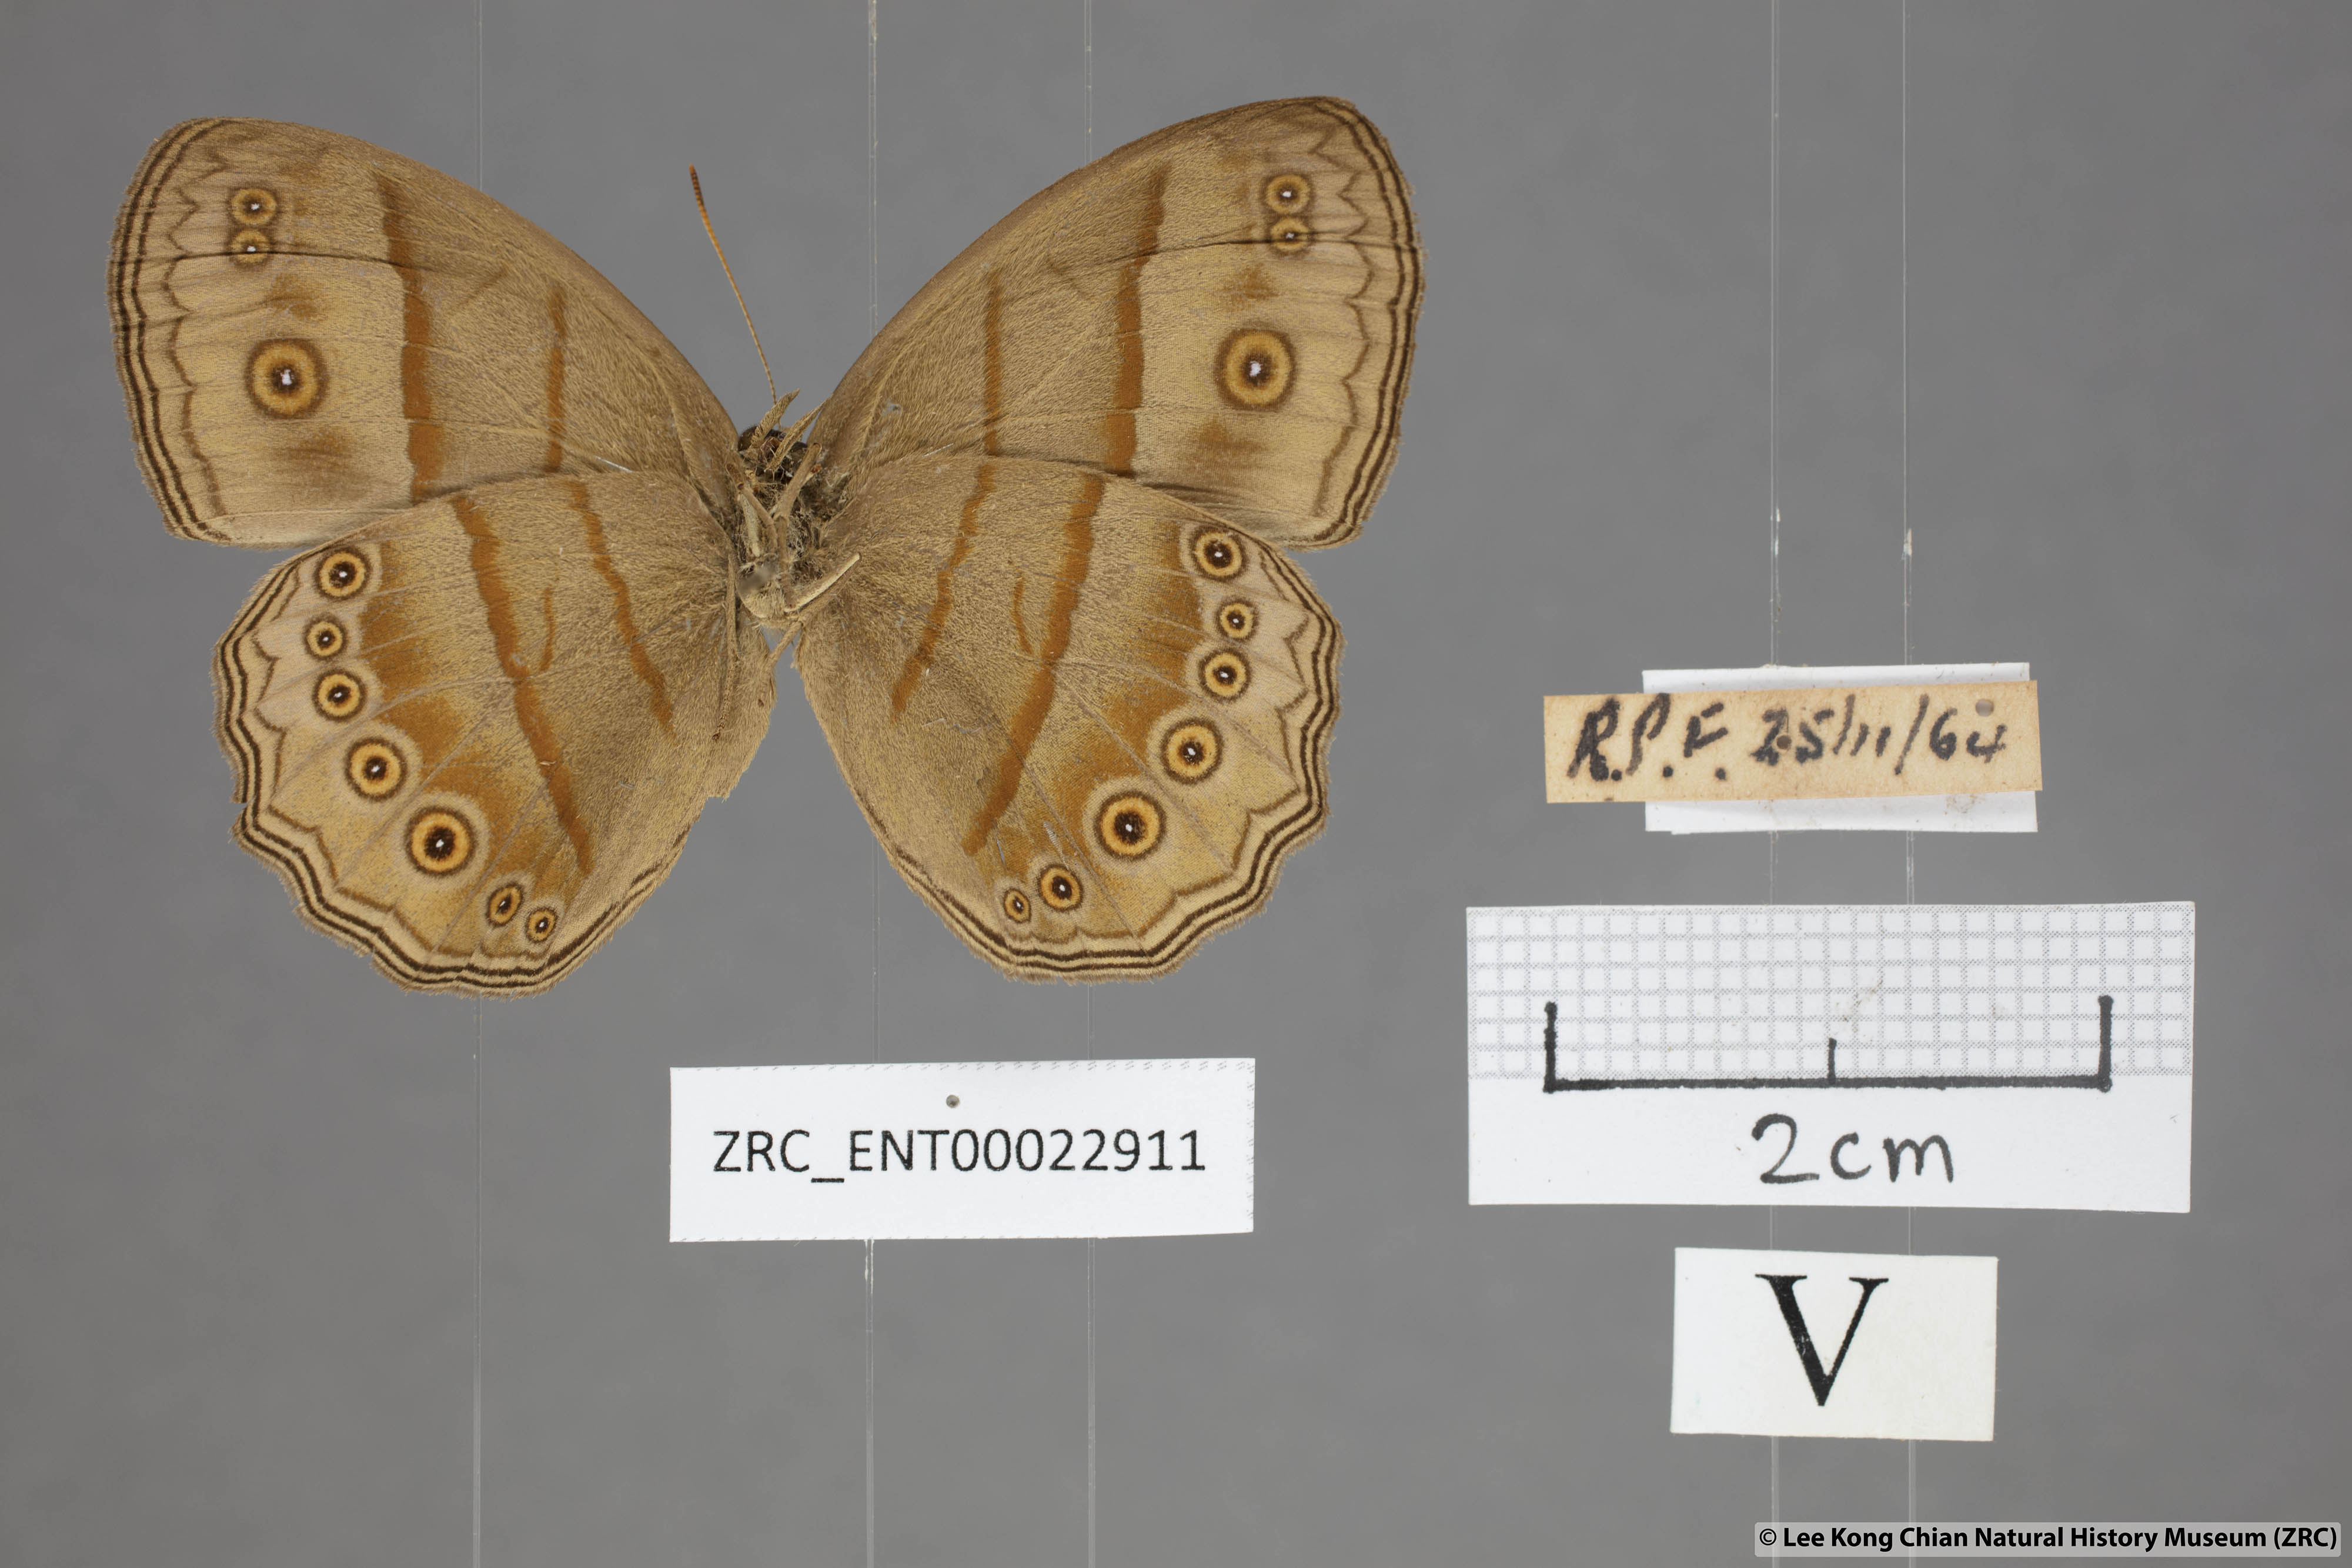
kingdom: Animalia
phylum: Arthropoda
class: Insecta
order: Lepidoptera
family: Nymphalidae
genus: Mycalesis
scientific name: Mycalesis fuscum
